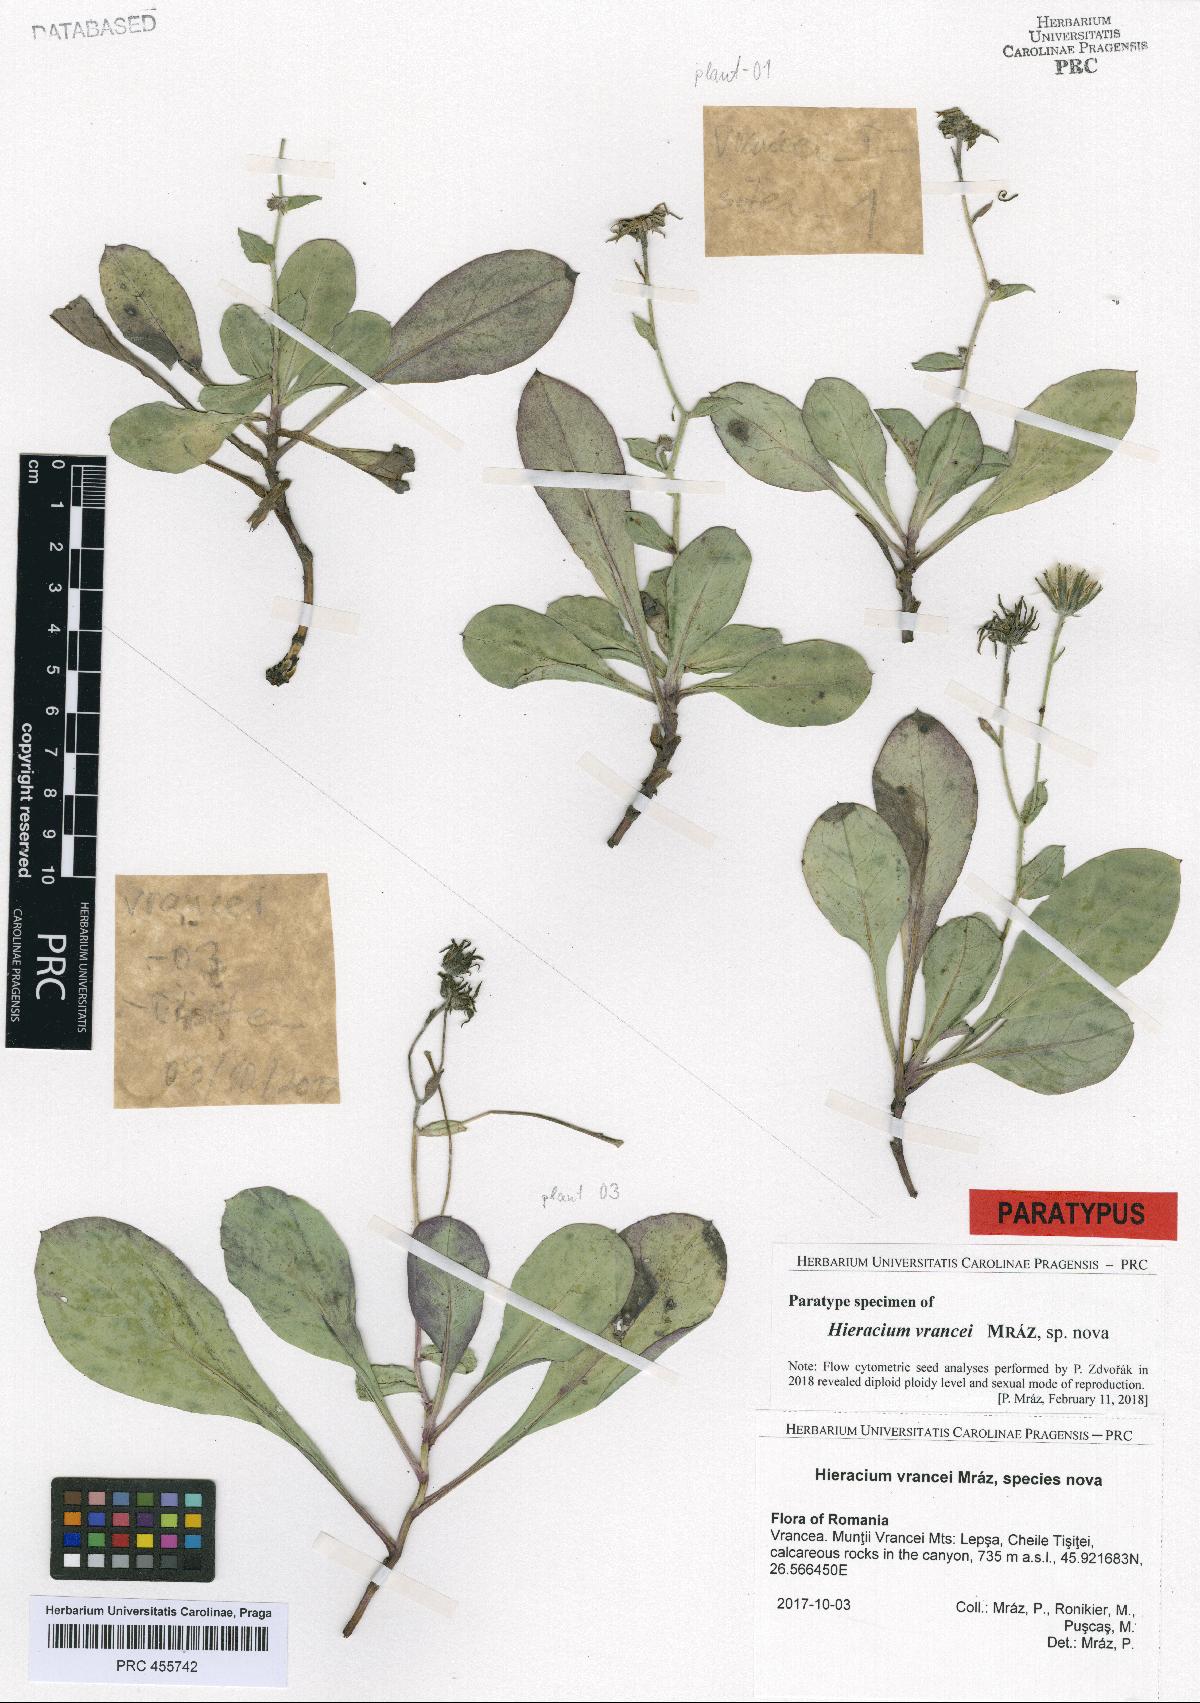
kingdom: Plantae
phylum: Tracheophyta
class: Magnoliopsida
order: Asterales
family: Asteraceae
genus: Hieracium
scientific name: Hieracium
